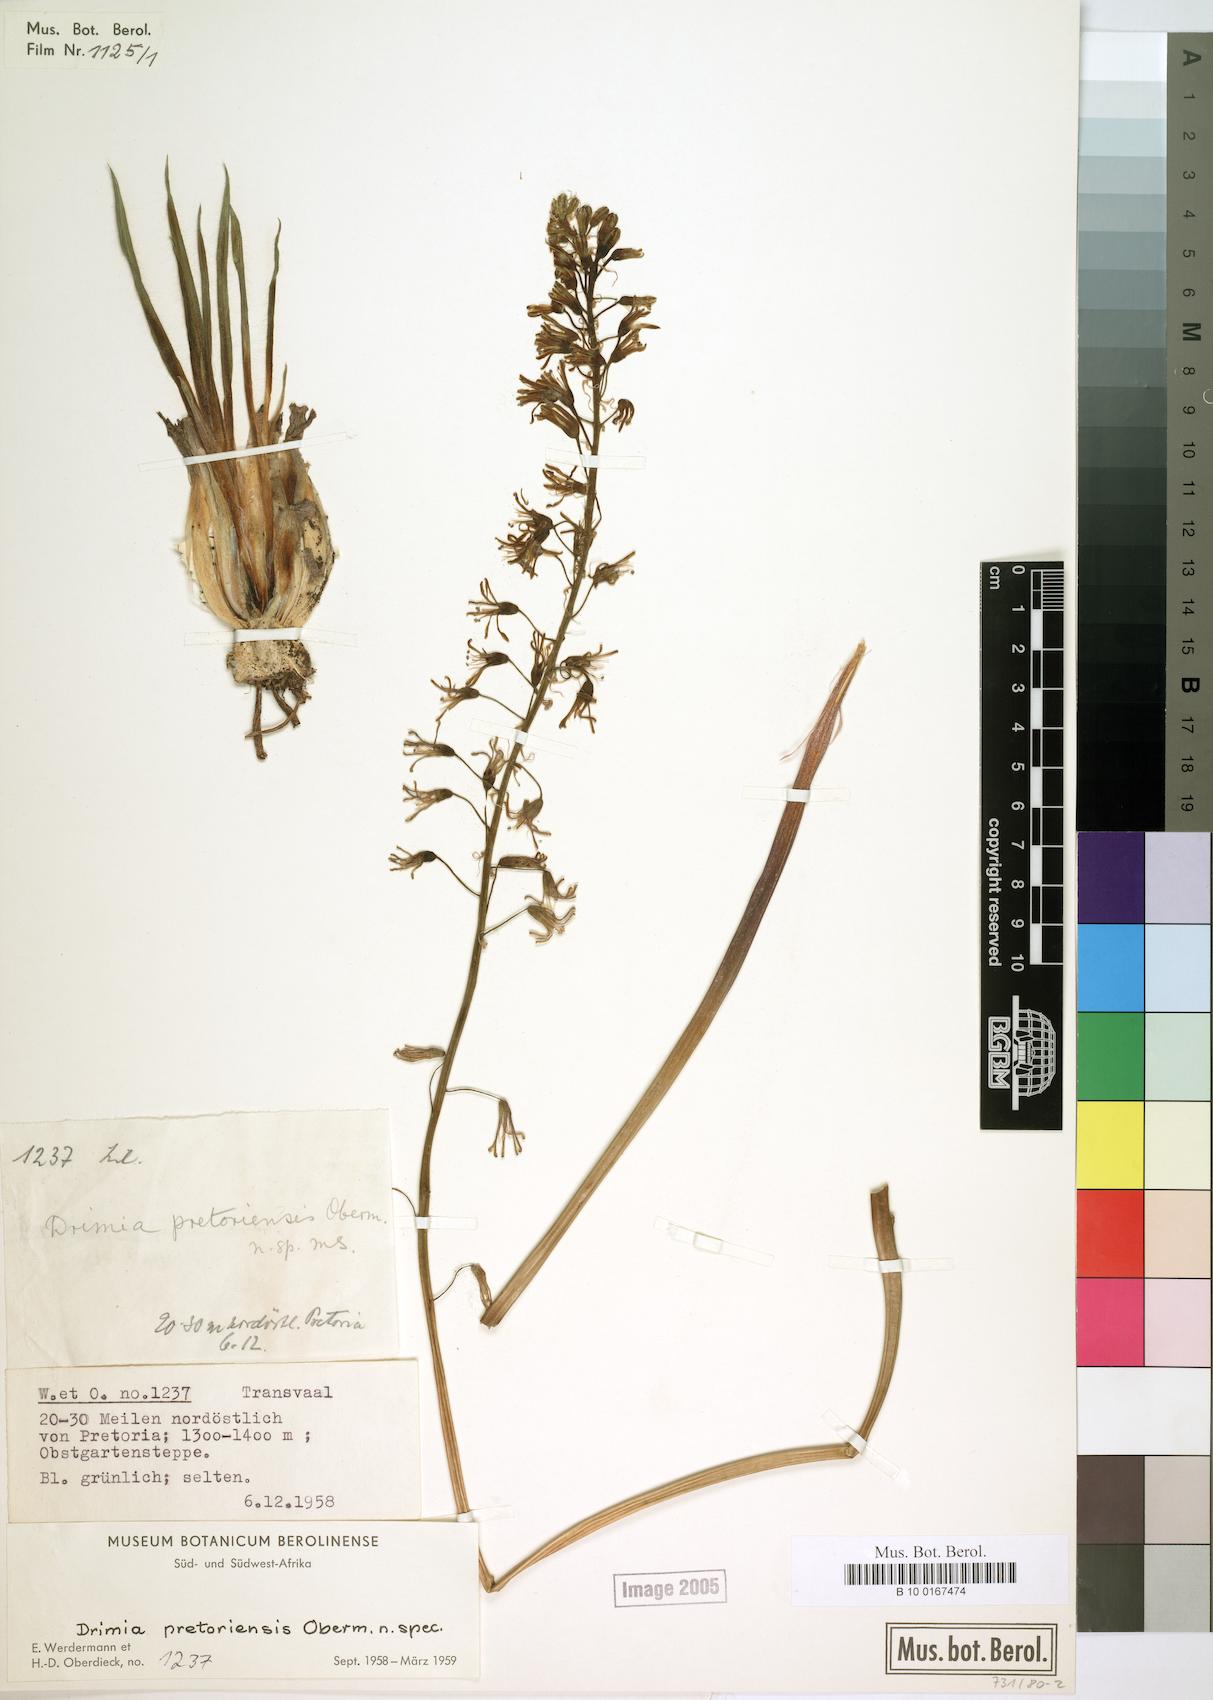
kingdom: Plantae
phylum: Tracheophyta
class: Liliopsida
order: Asparagales
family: Asparagaceae
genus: Drimia
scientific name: Drimia
